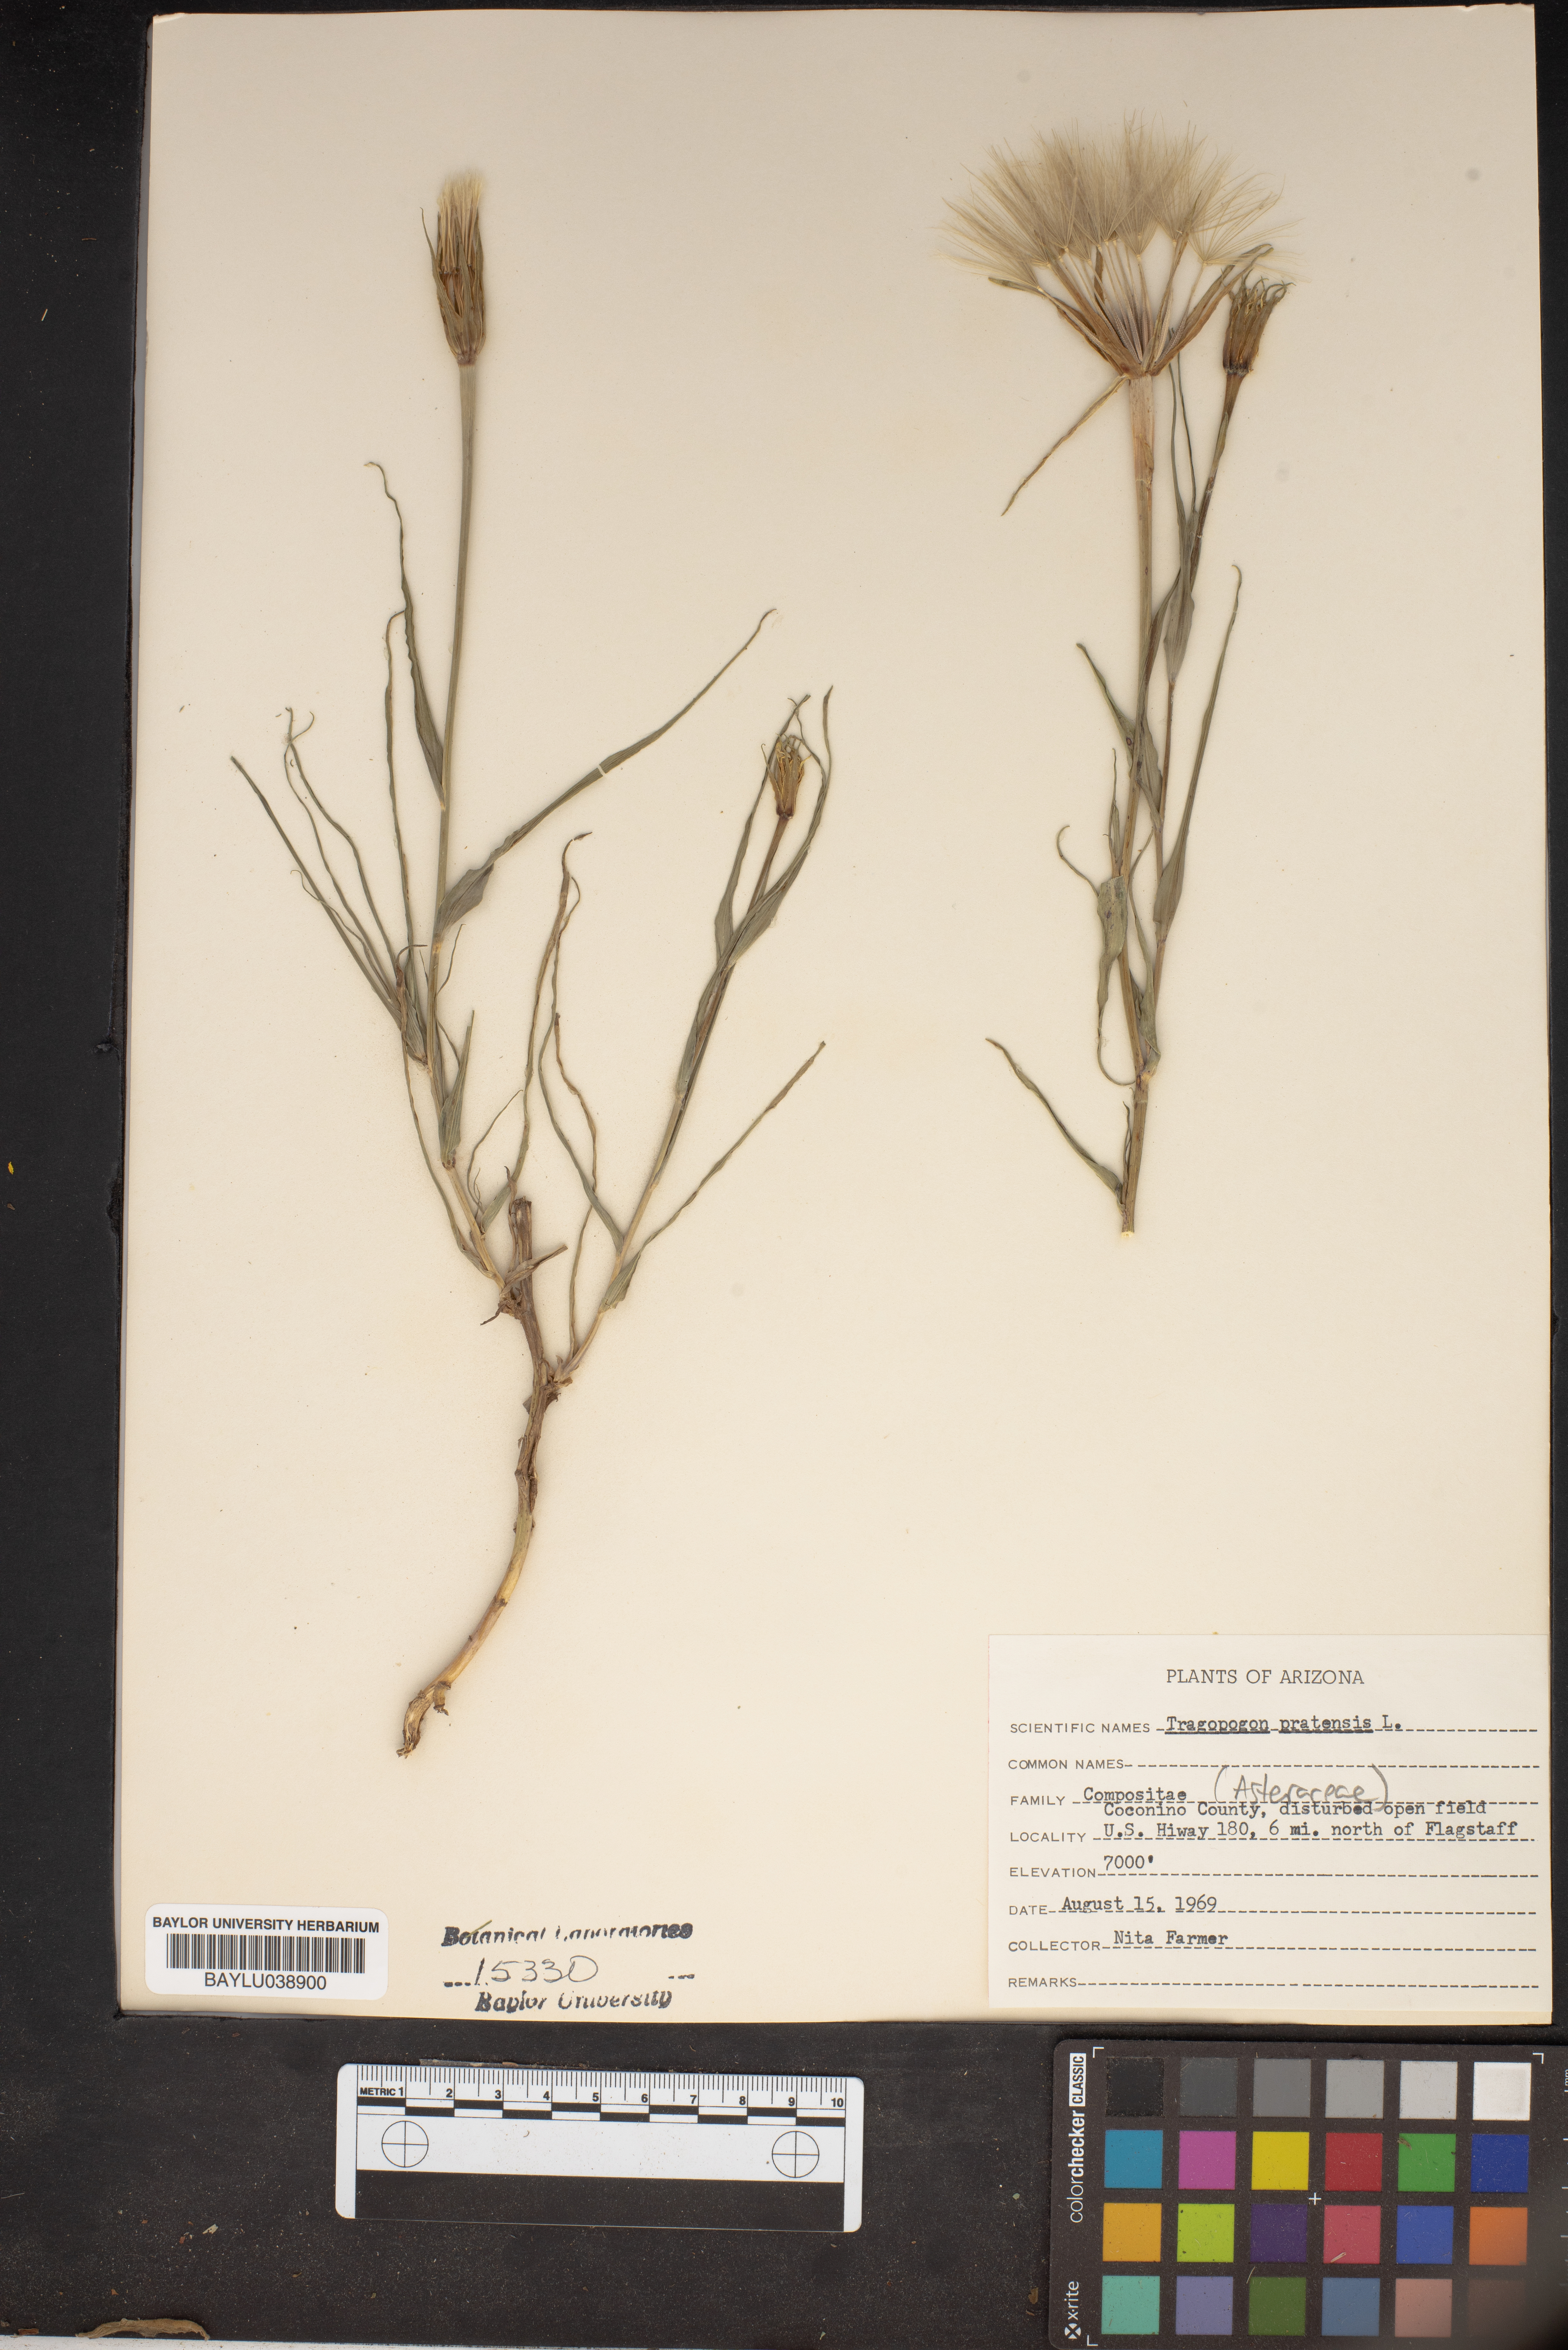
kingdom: Plantae
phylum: Tracheophyta
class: Magnoliopsida
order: Asterales
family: Asteraceae
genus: Tragopogon
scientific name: Tragopogon pratensis
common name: Goat's-beard
